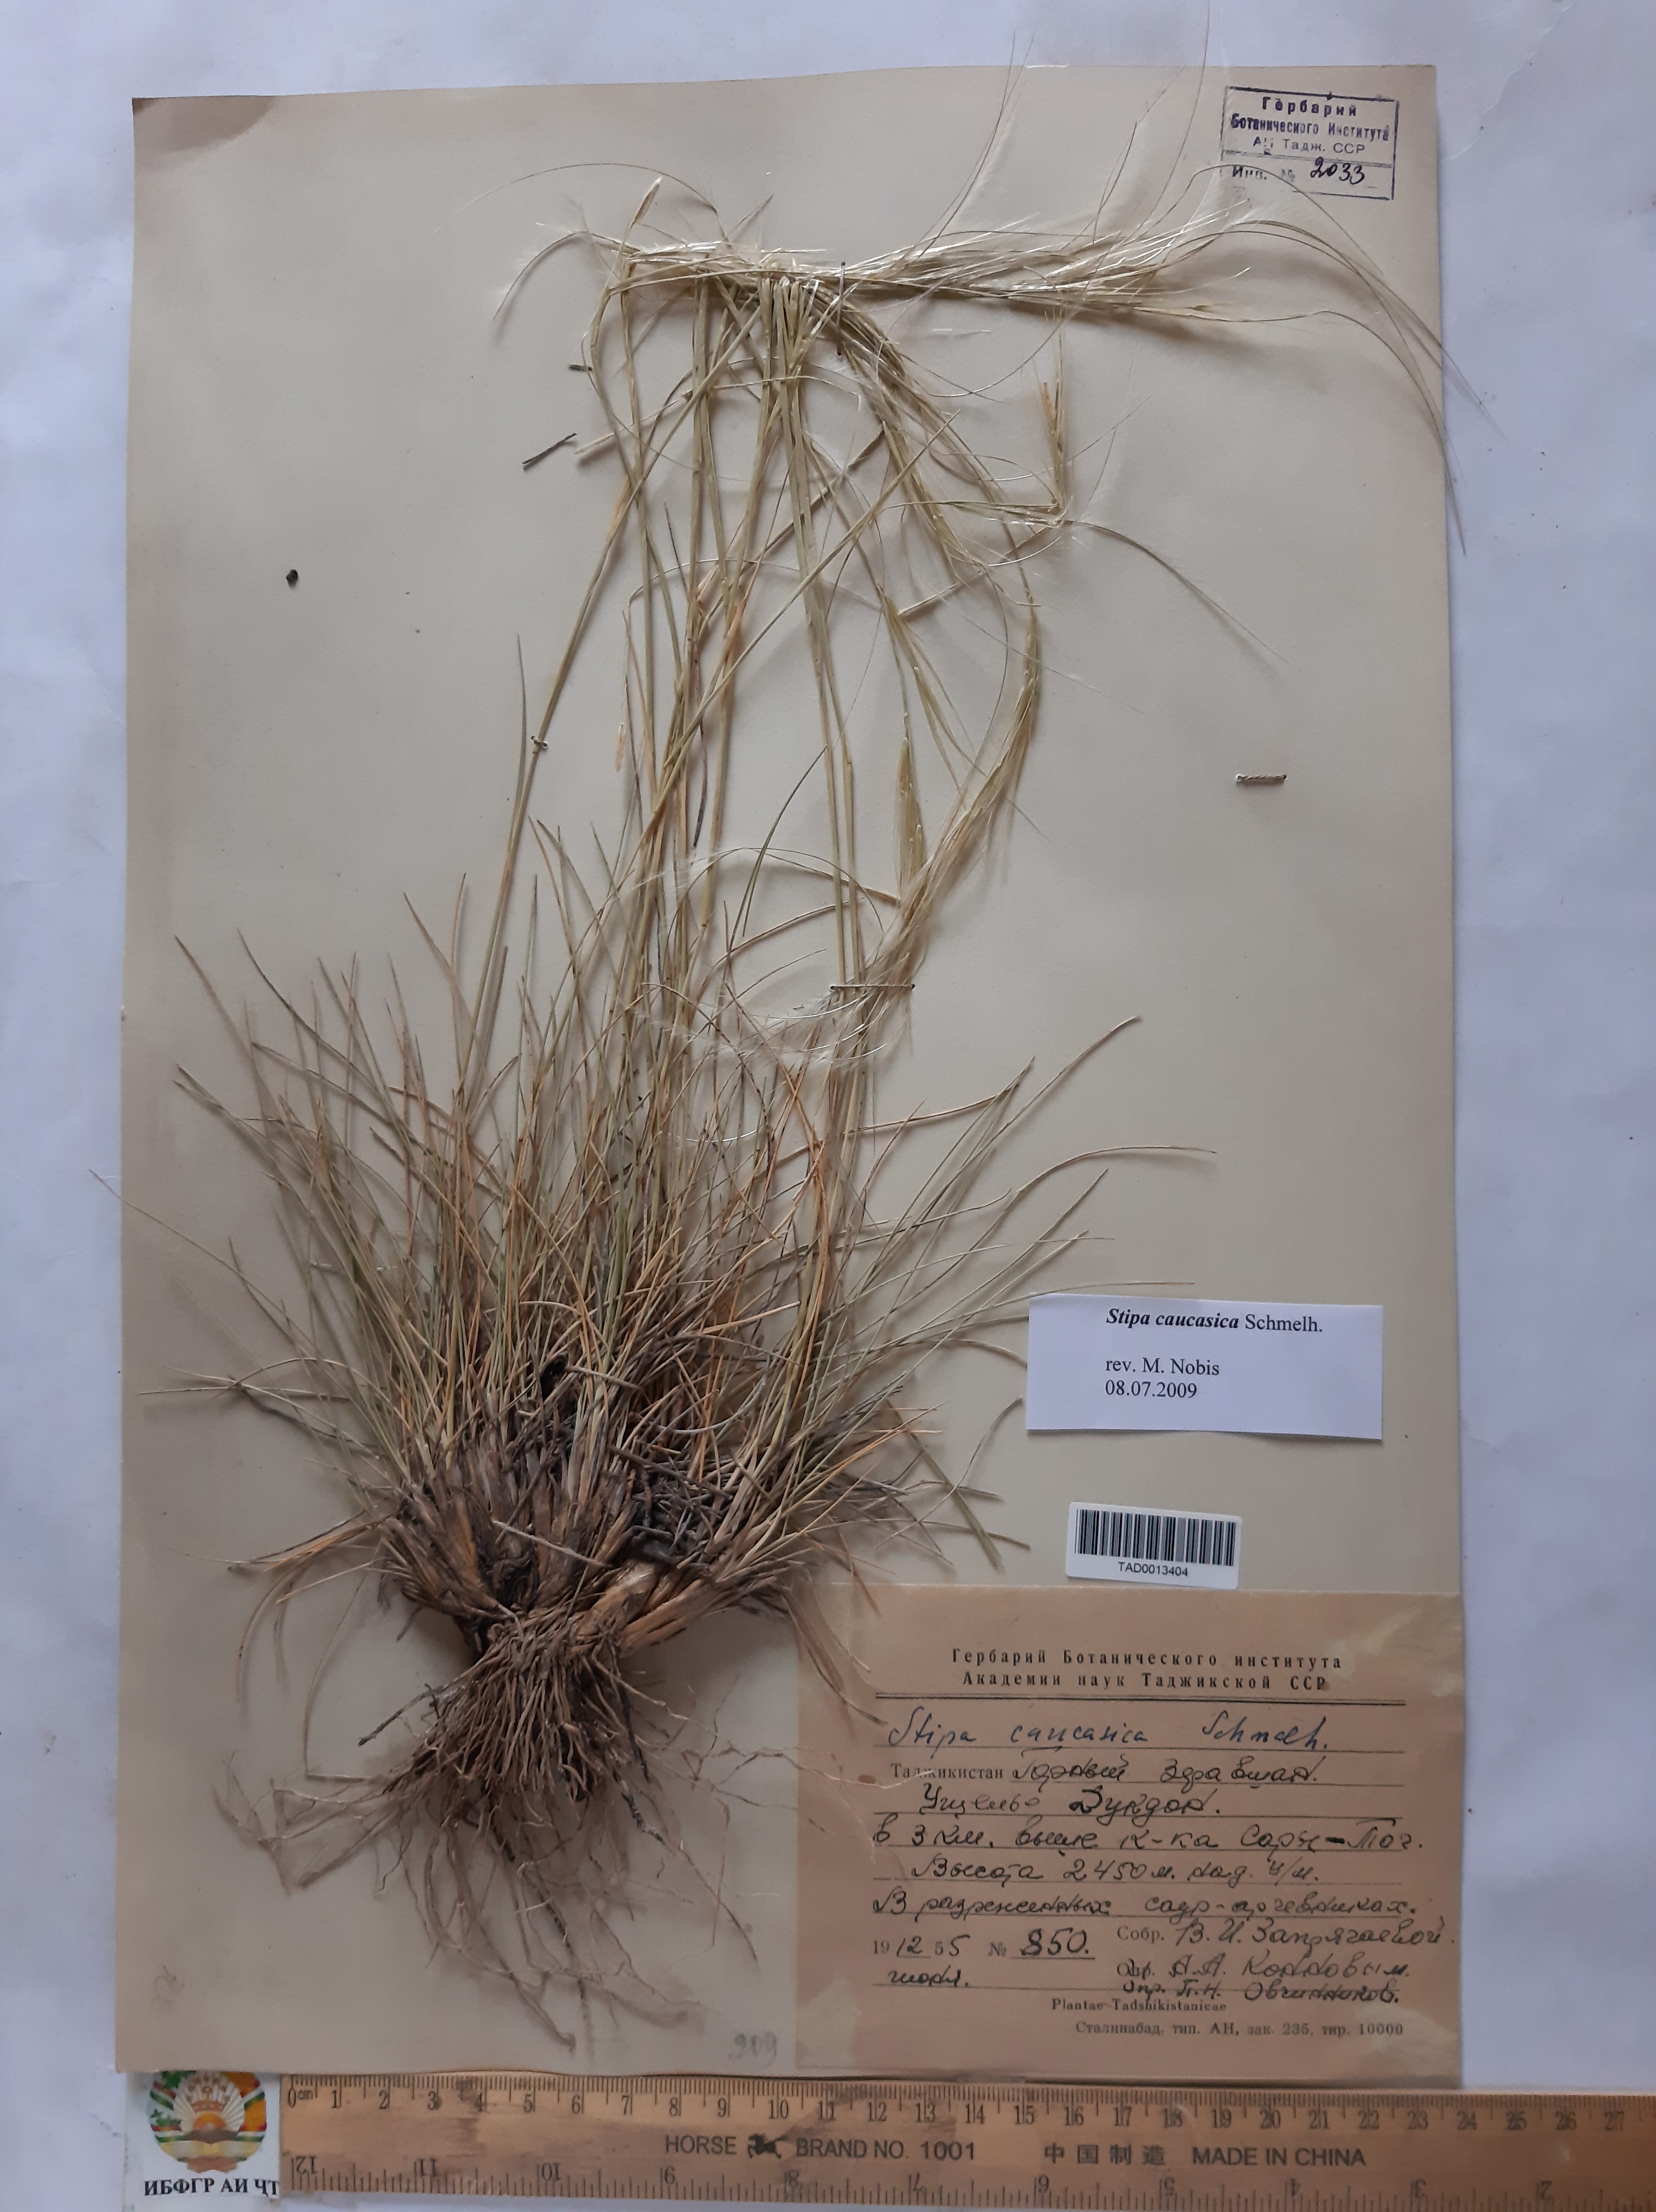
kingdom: Plantae
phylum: Tracheophyta
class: Liliopsida
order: Poales
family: Poaceae
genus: Stipa
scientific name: Stipa caucasica
